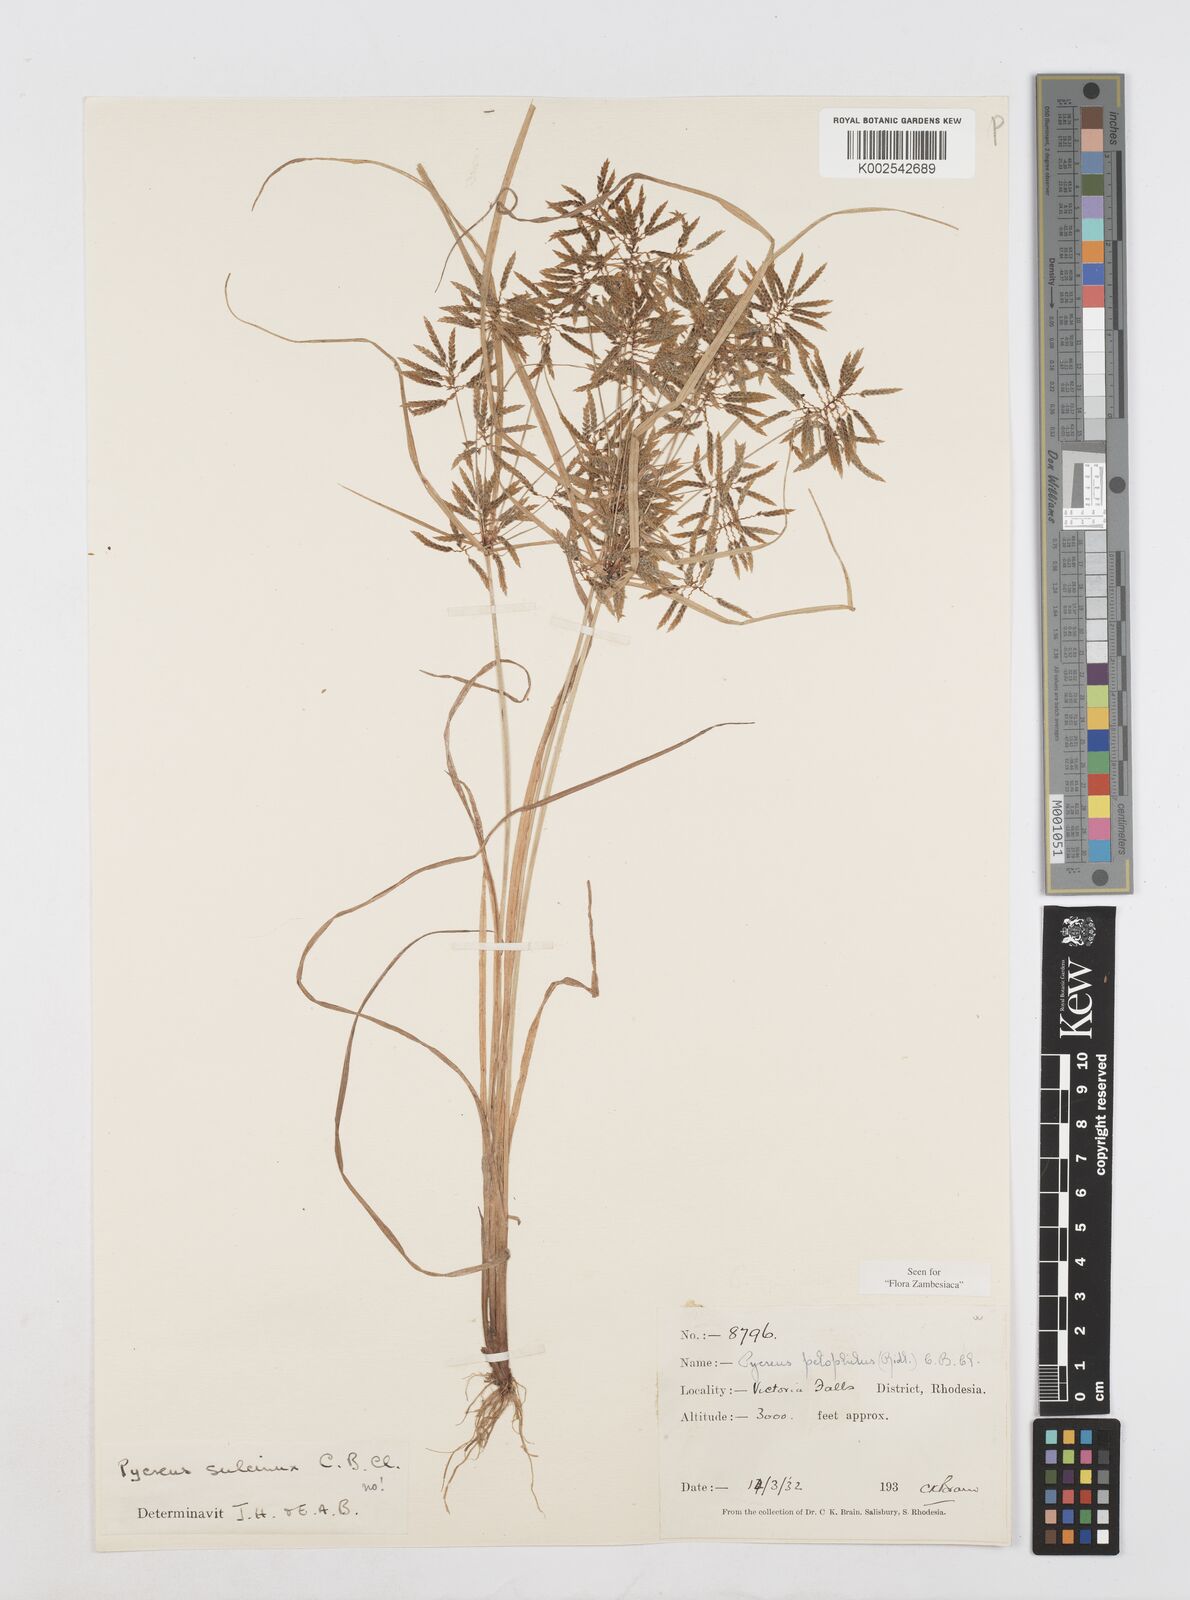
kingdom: Plantae
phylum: Tracheophyta
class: Liliopsida
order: Poales
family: Cyperaceae
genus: Cyperus
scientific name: Cyperus pelophilus
